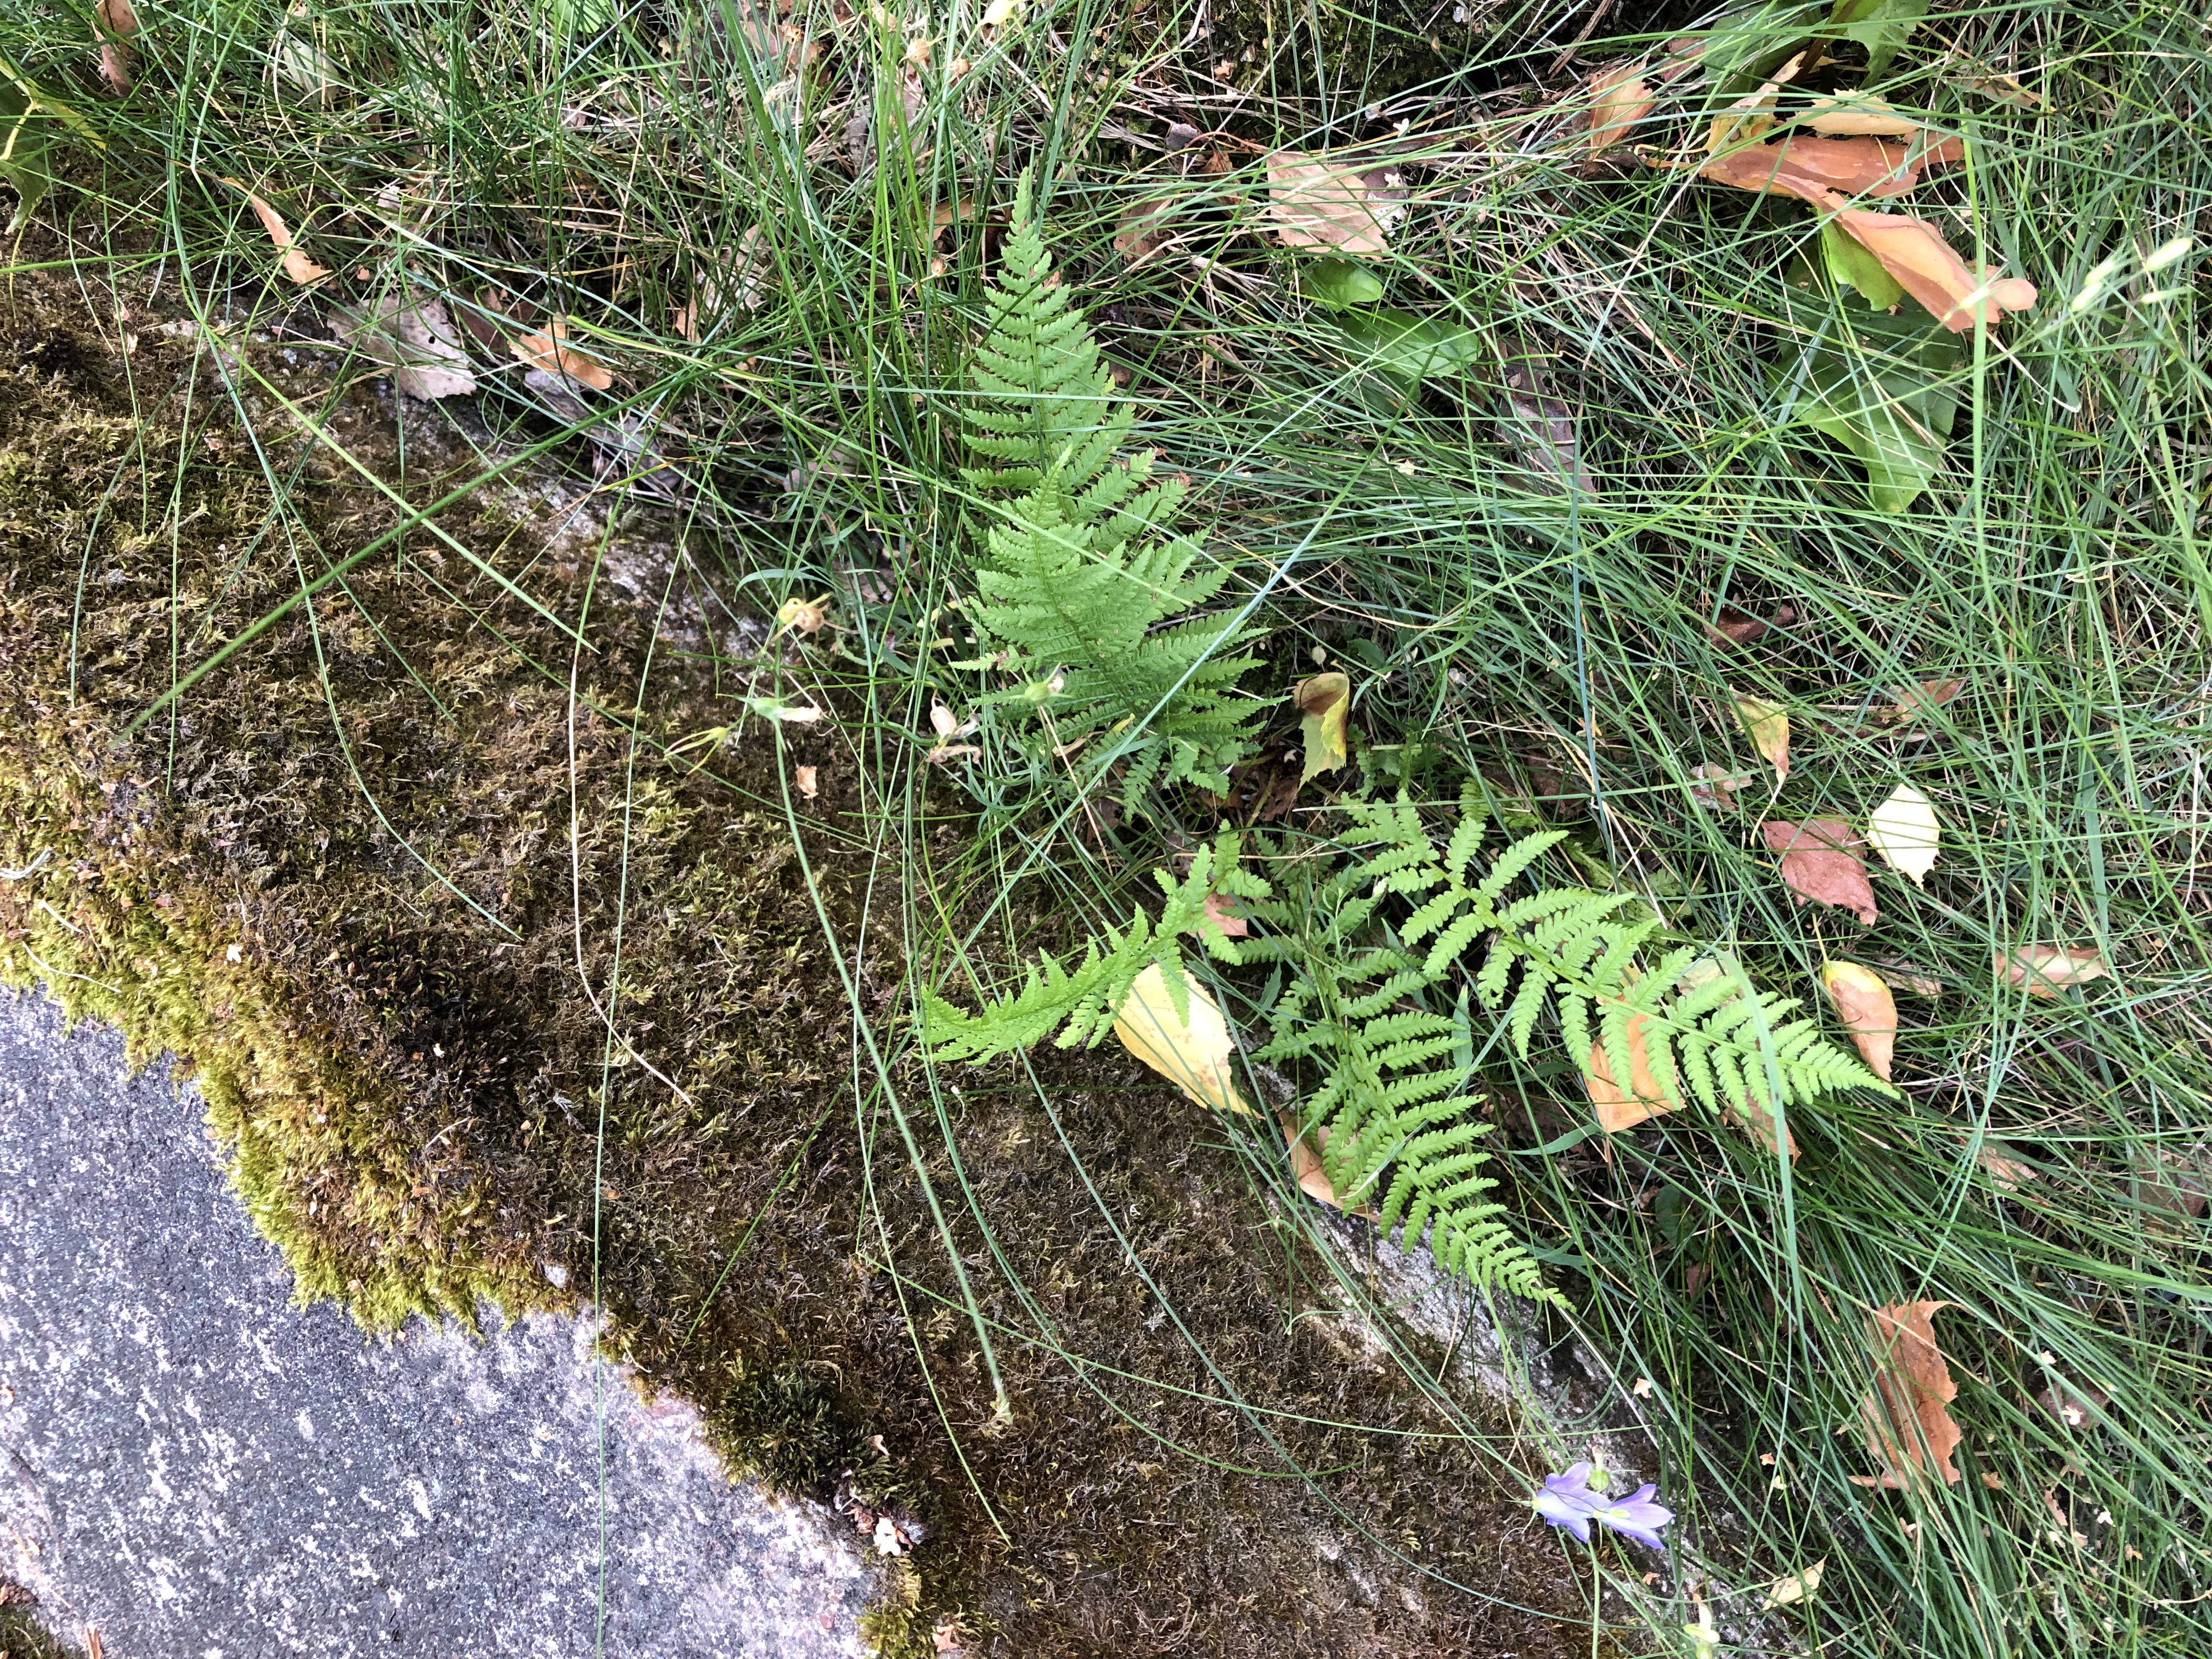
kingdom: Plantae
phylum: Tracheophyta
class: Polypodiopsida
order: Polypodiales
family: Dryopteridaceae
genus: Dryopteris
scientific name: Dryopteris filix-mas
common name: Male fern
